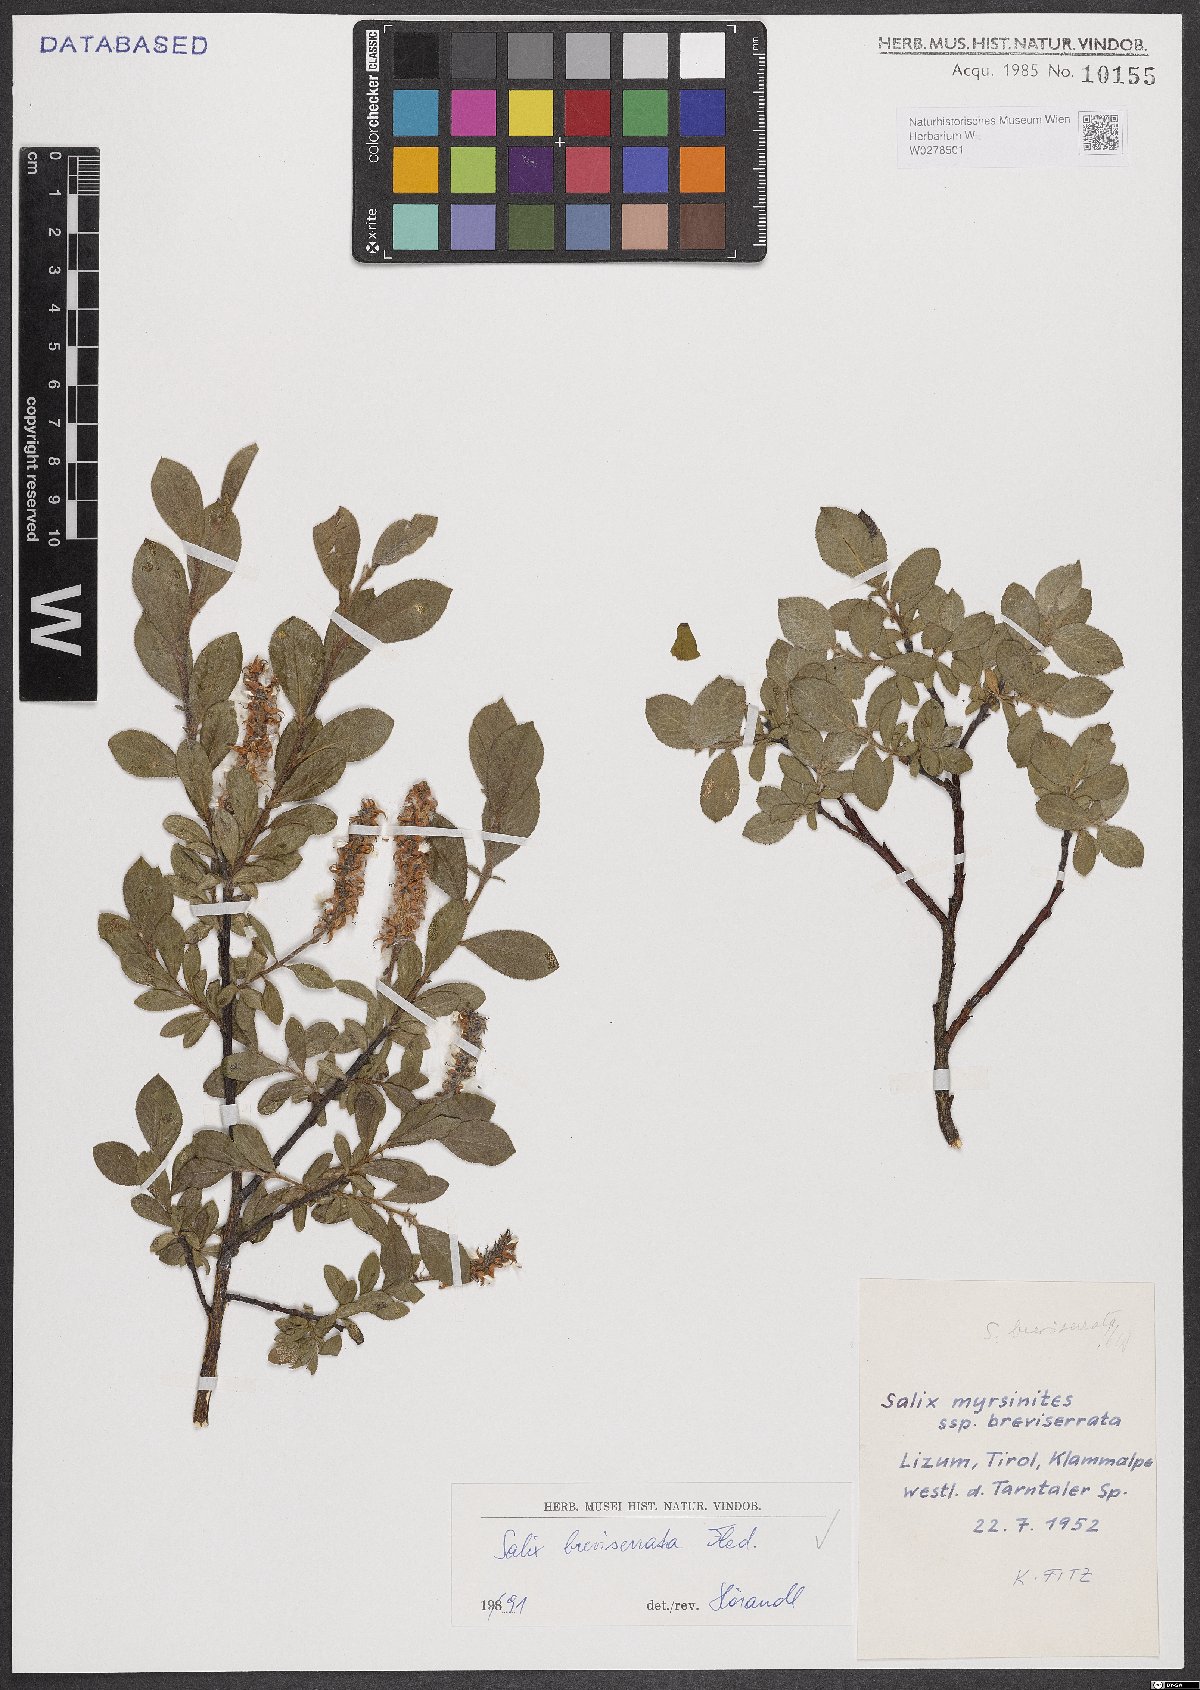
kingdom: Plantae
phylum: Tracheophyta
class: Magnoliopsida
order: Malpighiales
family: Salicaceae
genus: Salix
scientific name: Salix breviserrata
